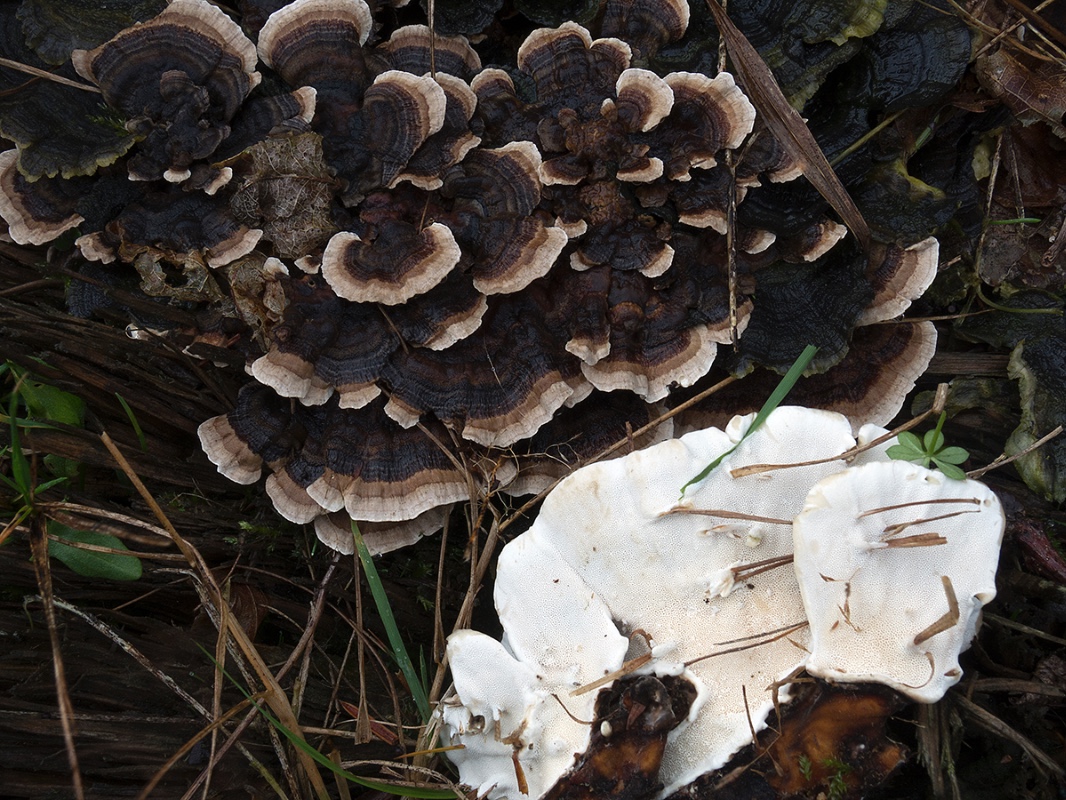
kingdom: Fungi
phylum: Basidiomycota
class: Agaricomycetes
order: Polyporales
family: Polyporaceae
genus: Trametes
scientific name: Trametes versicolor
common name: broget læderporesvamp
